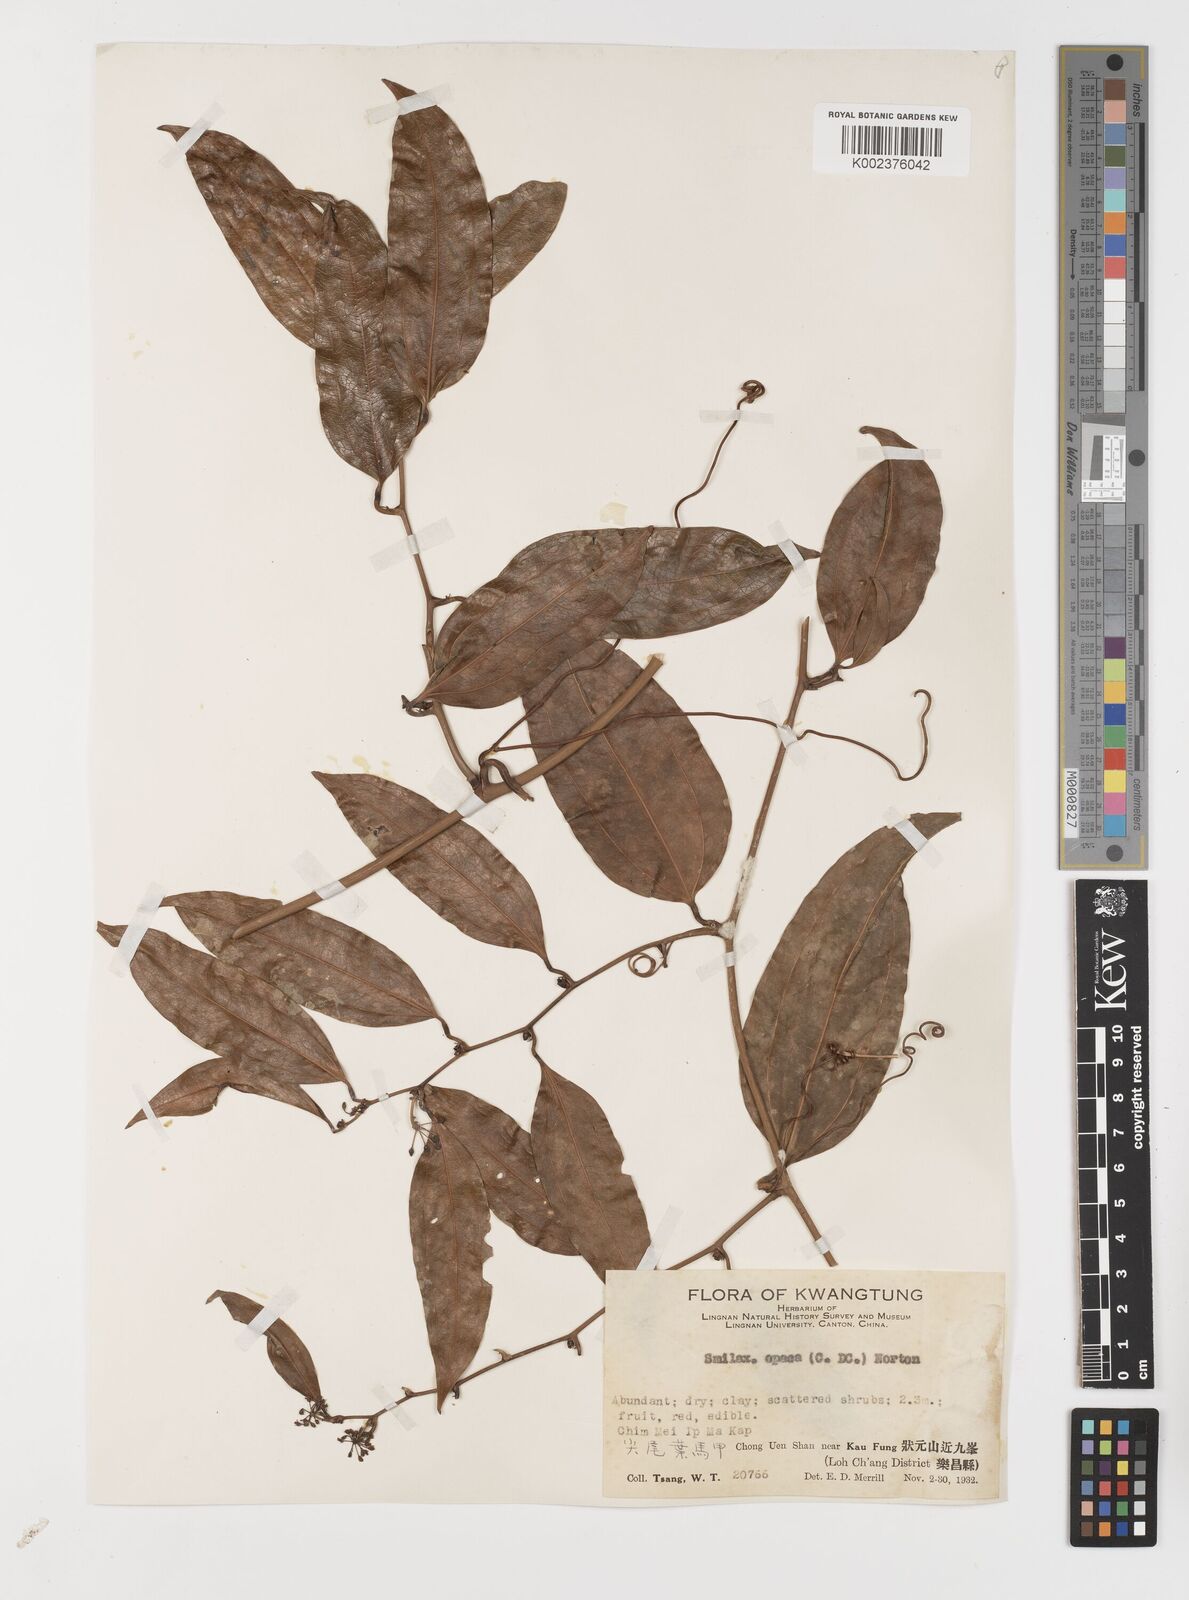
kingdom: Plantae
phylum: Tracheophyta
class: Liliopsida
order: Liliales
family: Smilacaceae
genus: Smilax
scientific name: Smilax laevis
